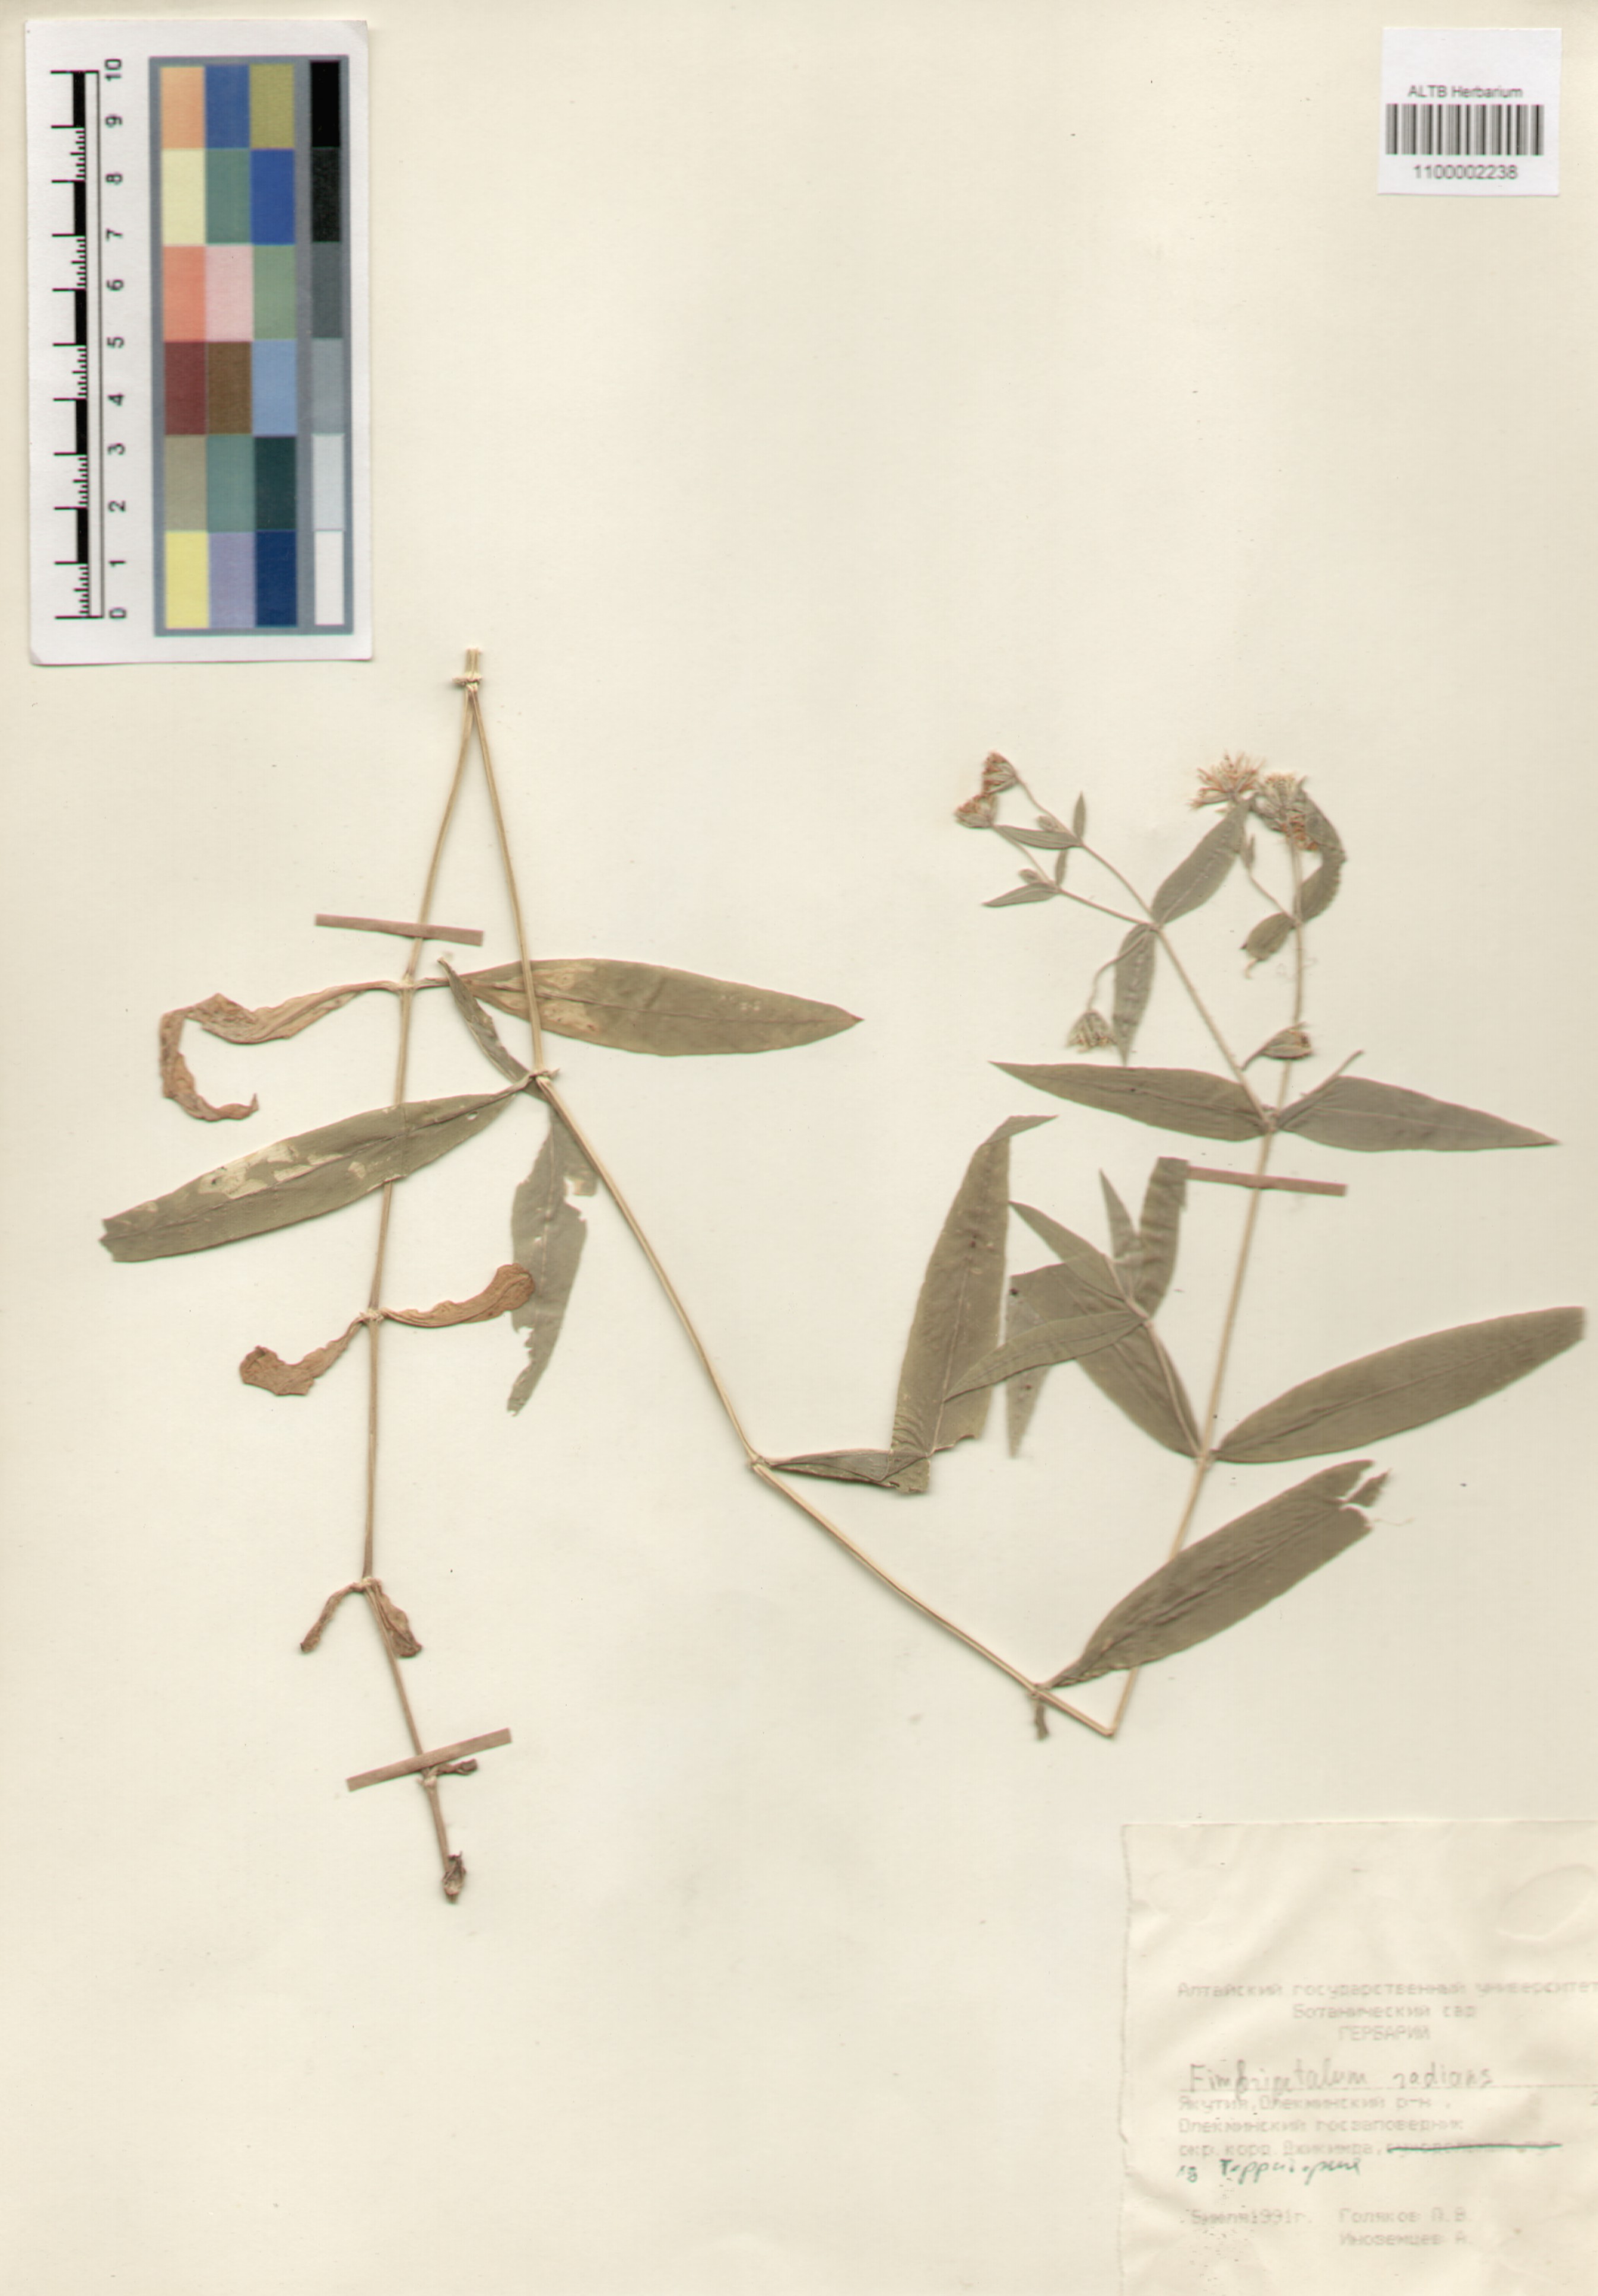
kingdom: Plantae
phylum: Tracheophyta
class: Magnoliopsida
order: Caryophyllales
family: Caryophyllaceae
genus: Stellaria
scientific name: Stellaria radians
